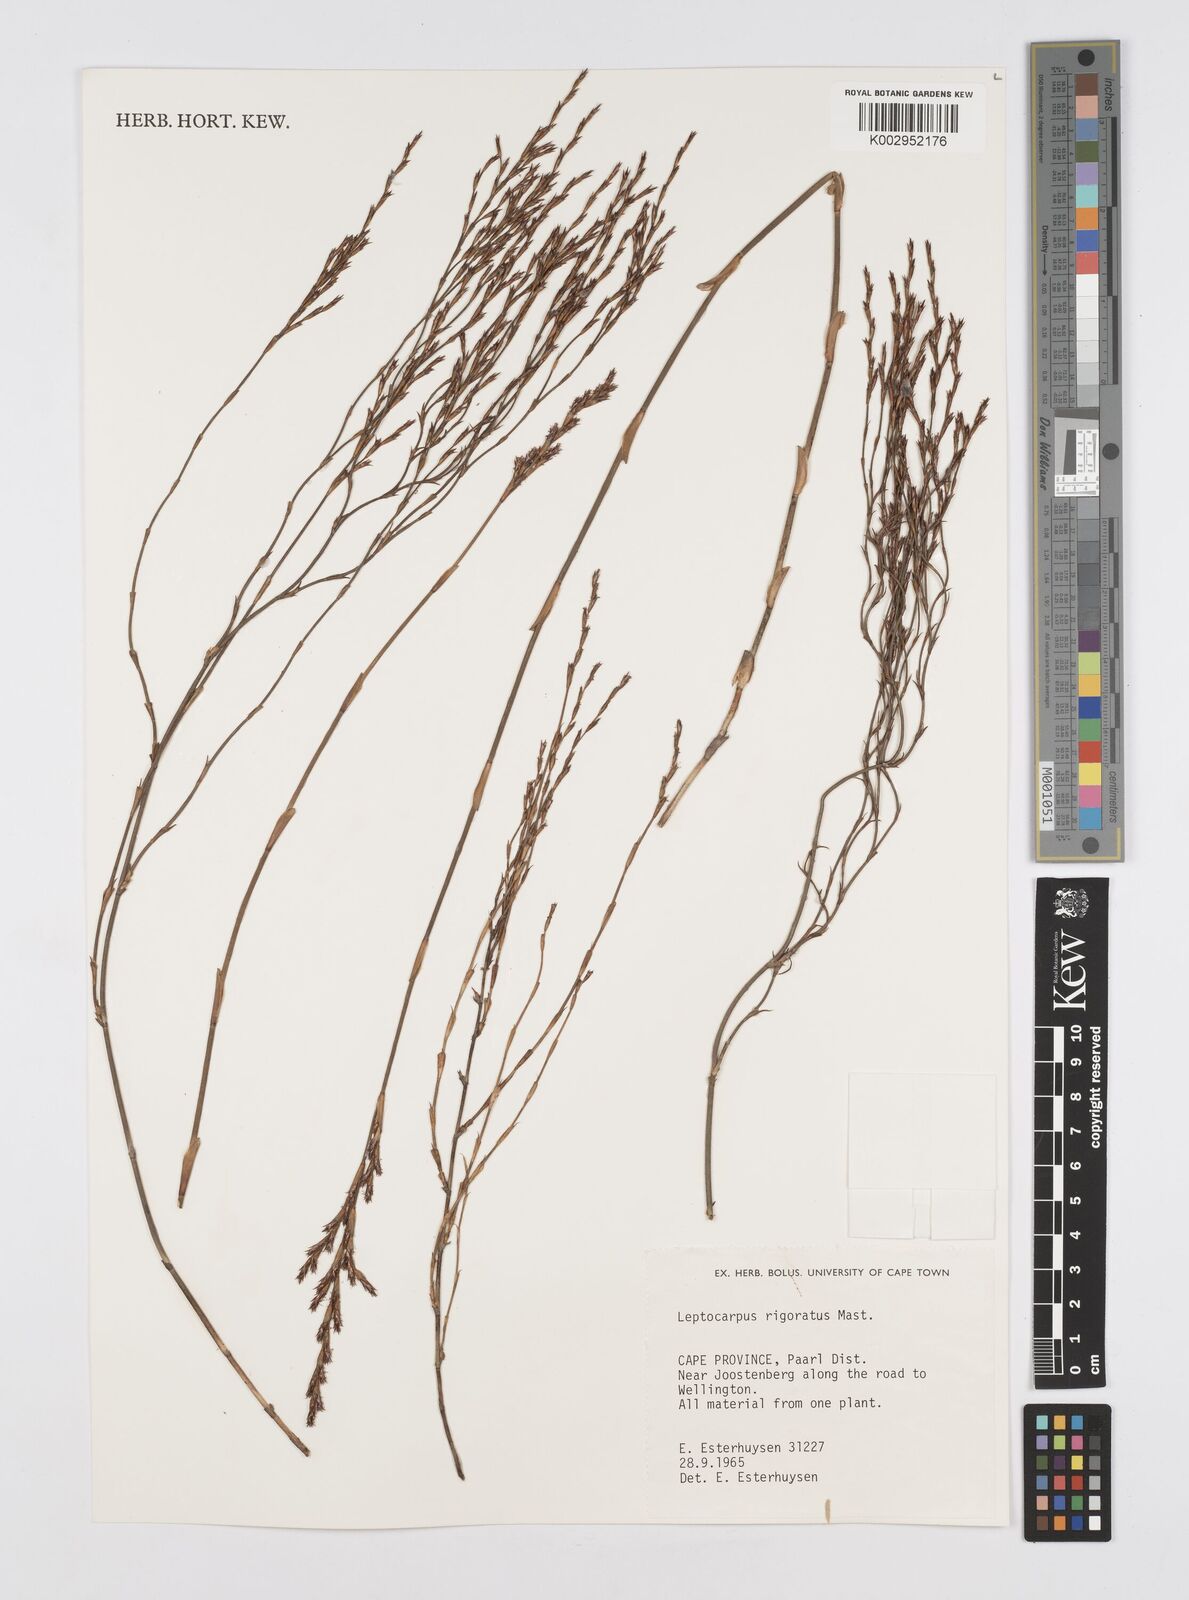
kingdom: Plantae
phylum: Tracheophyta
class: Liliopsida
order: Poales
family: Restionaceae
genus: Restio
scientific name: Restio rigoratus
